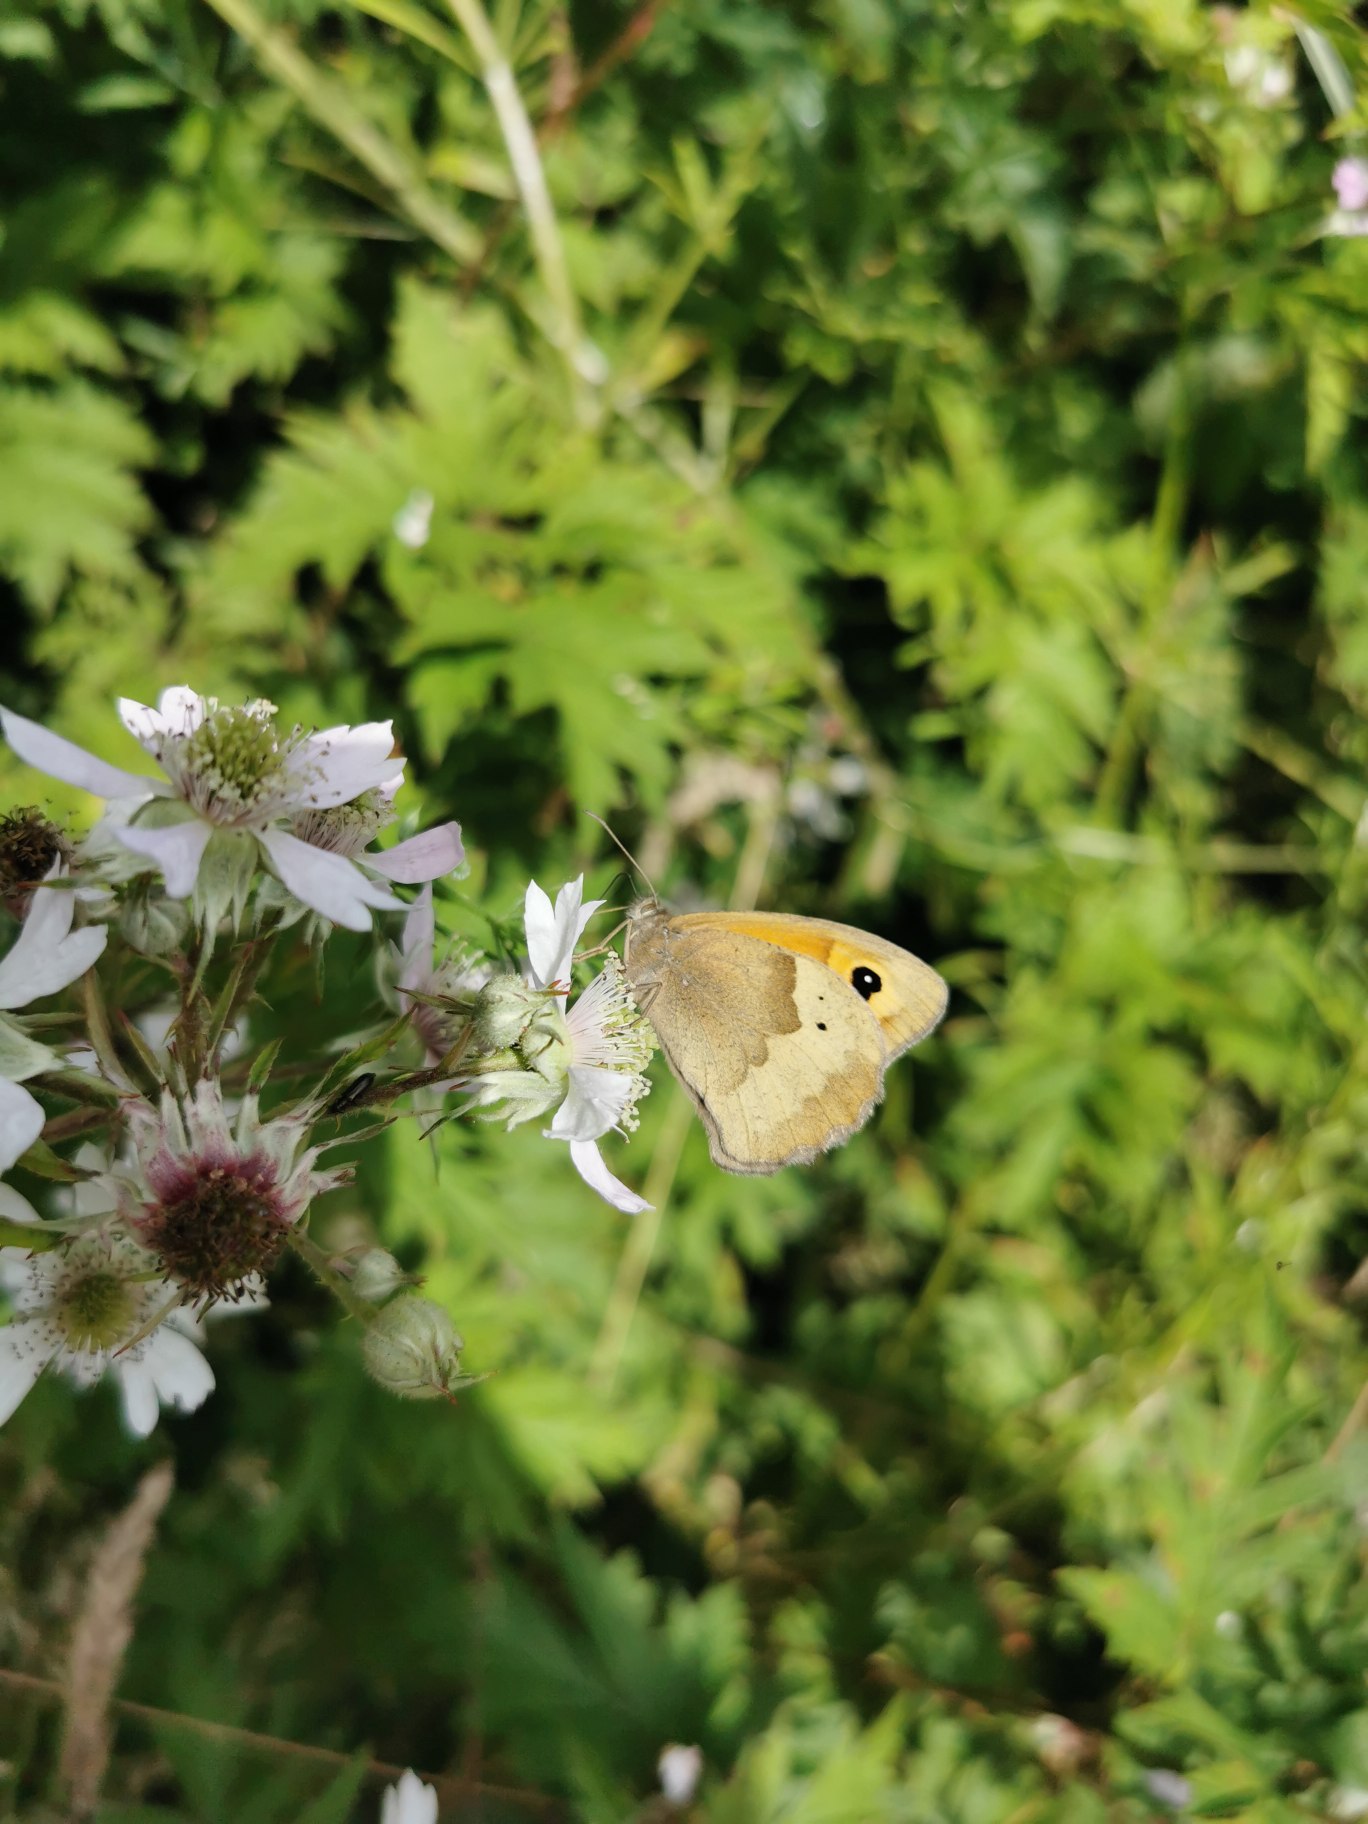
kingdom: Animalia
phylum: Arthropoda
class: Insecta
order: Lepidoptera
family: Nymphalidae
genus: Maniola
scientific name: Maniola jurtina
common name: Græsrandøje
